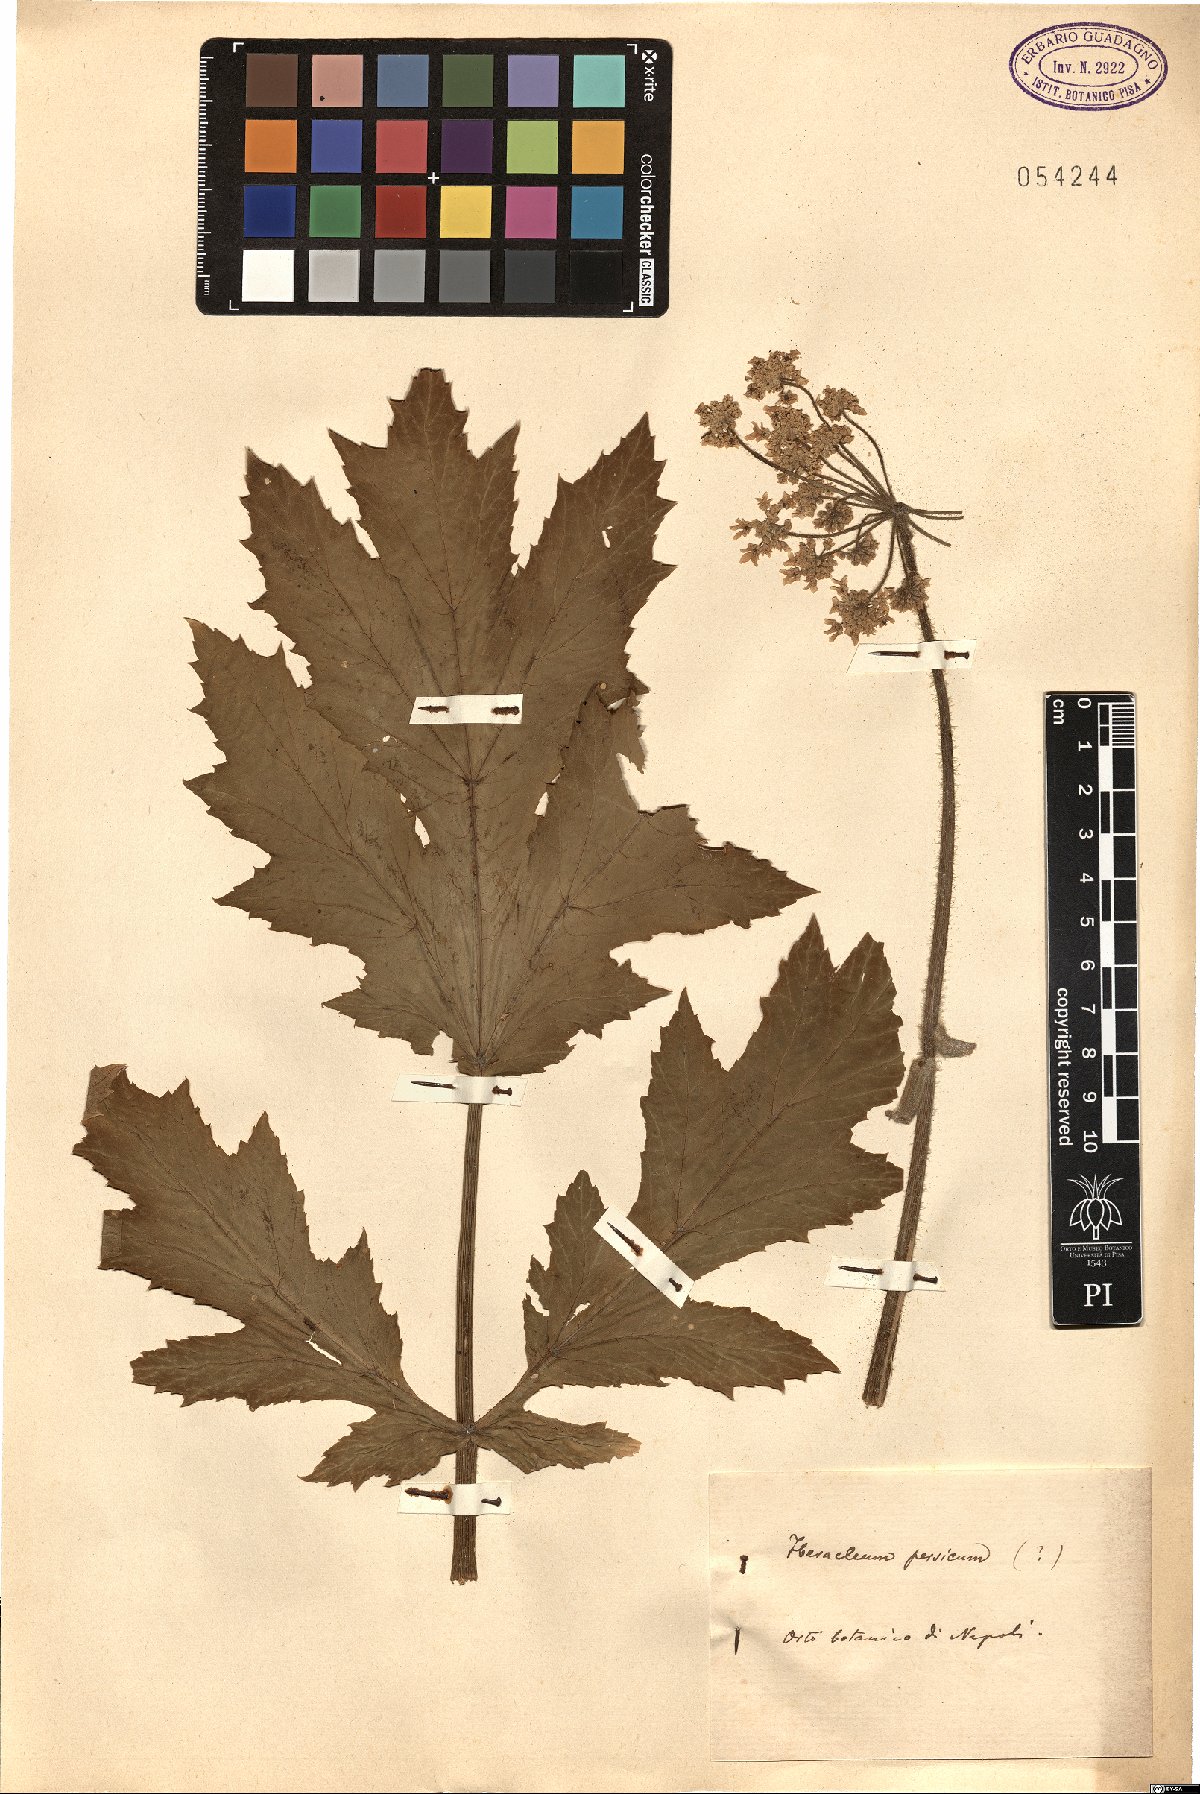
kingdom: Plantae
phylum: Tracheophyta
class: Magnoliopsida
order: Apiales
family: Apiaceae
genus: Heracleum
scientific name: Heracleum persicum
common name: Persian hogweed
